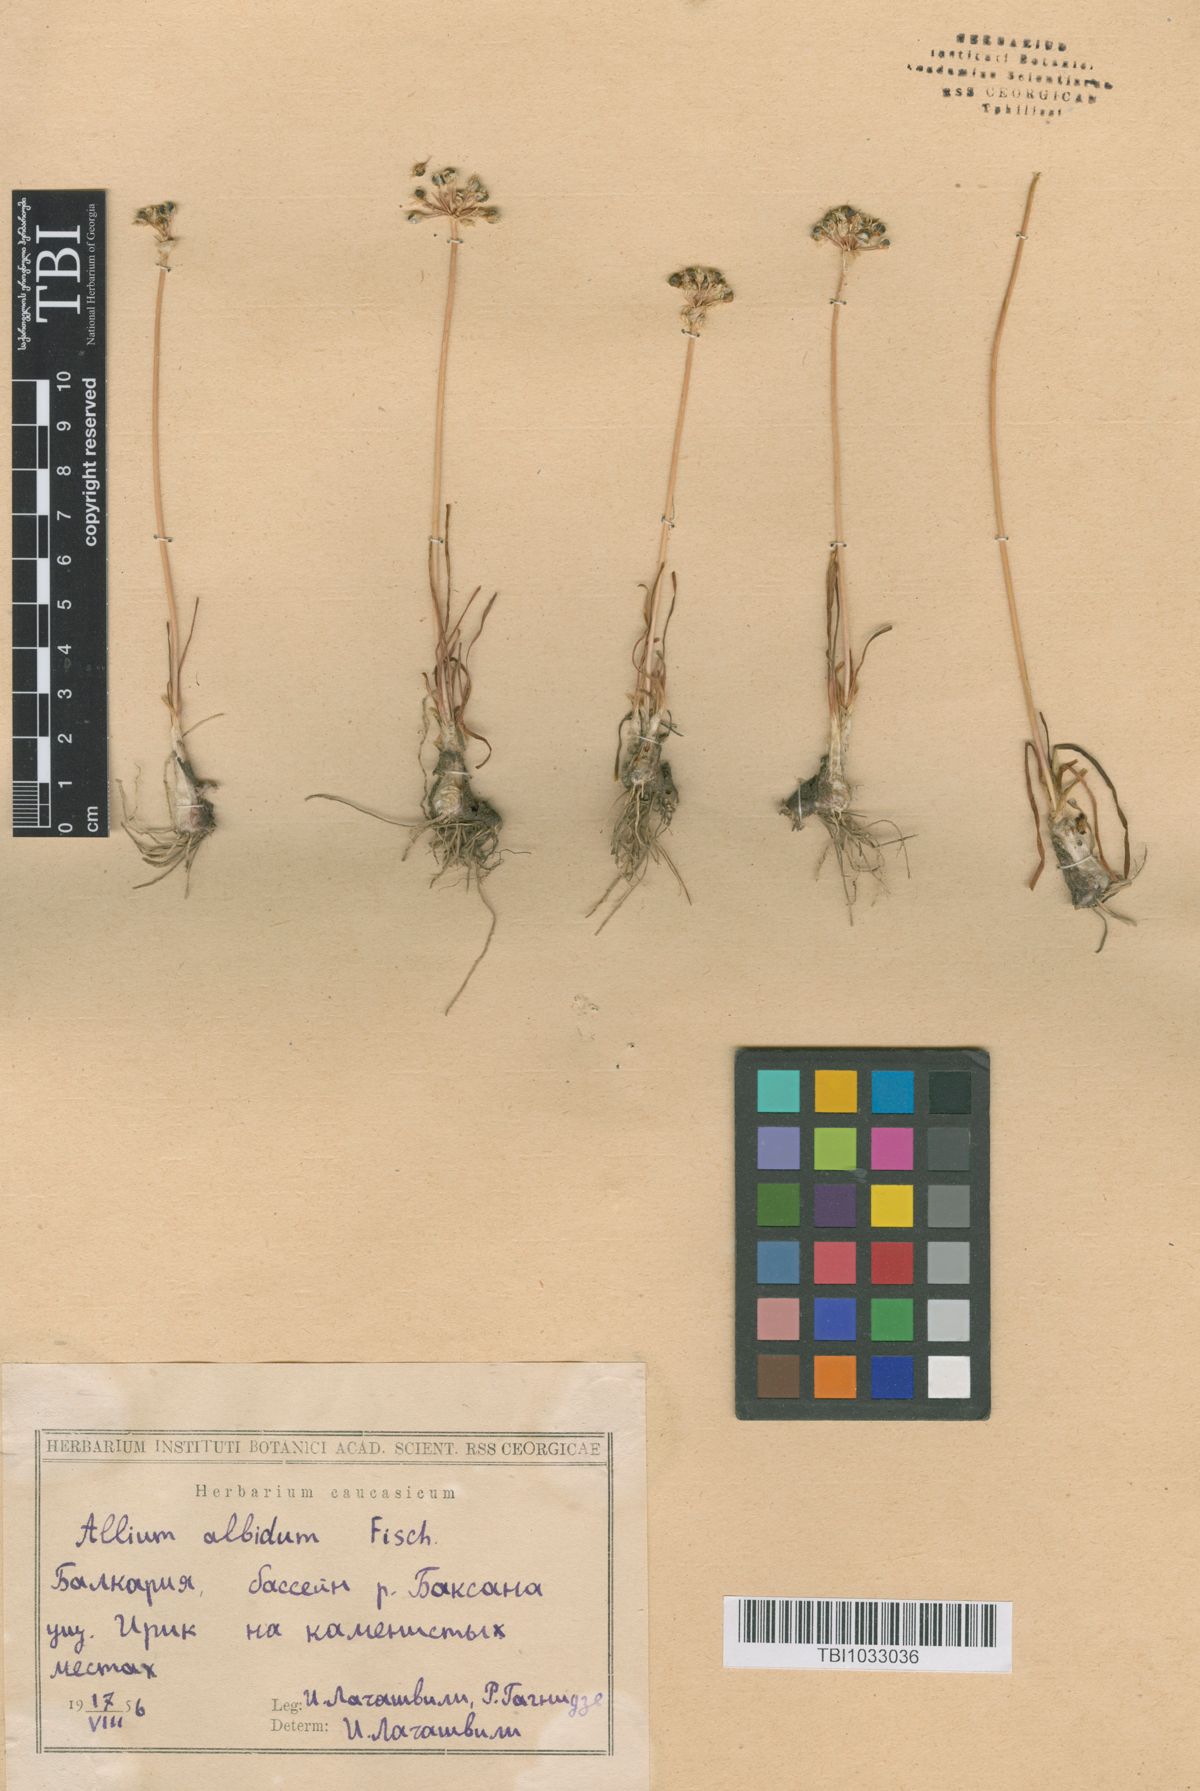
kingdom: Plantae
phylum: Tracheophyta
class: Liliopsida
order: Asparagales
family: Amaryllidaceae
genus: Allium
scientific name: Allium denudatum
